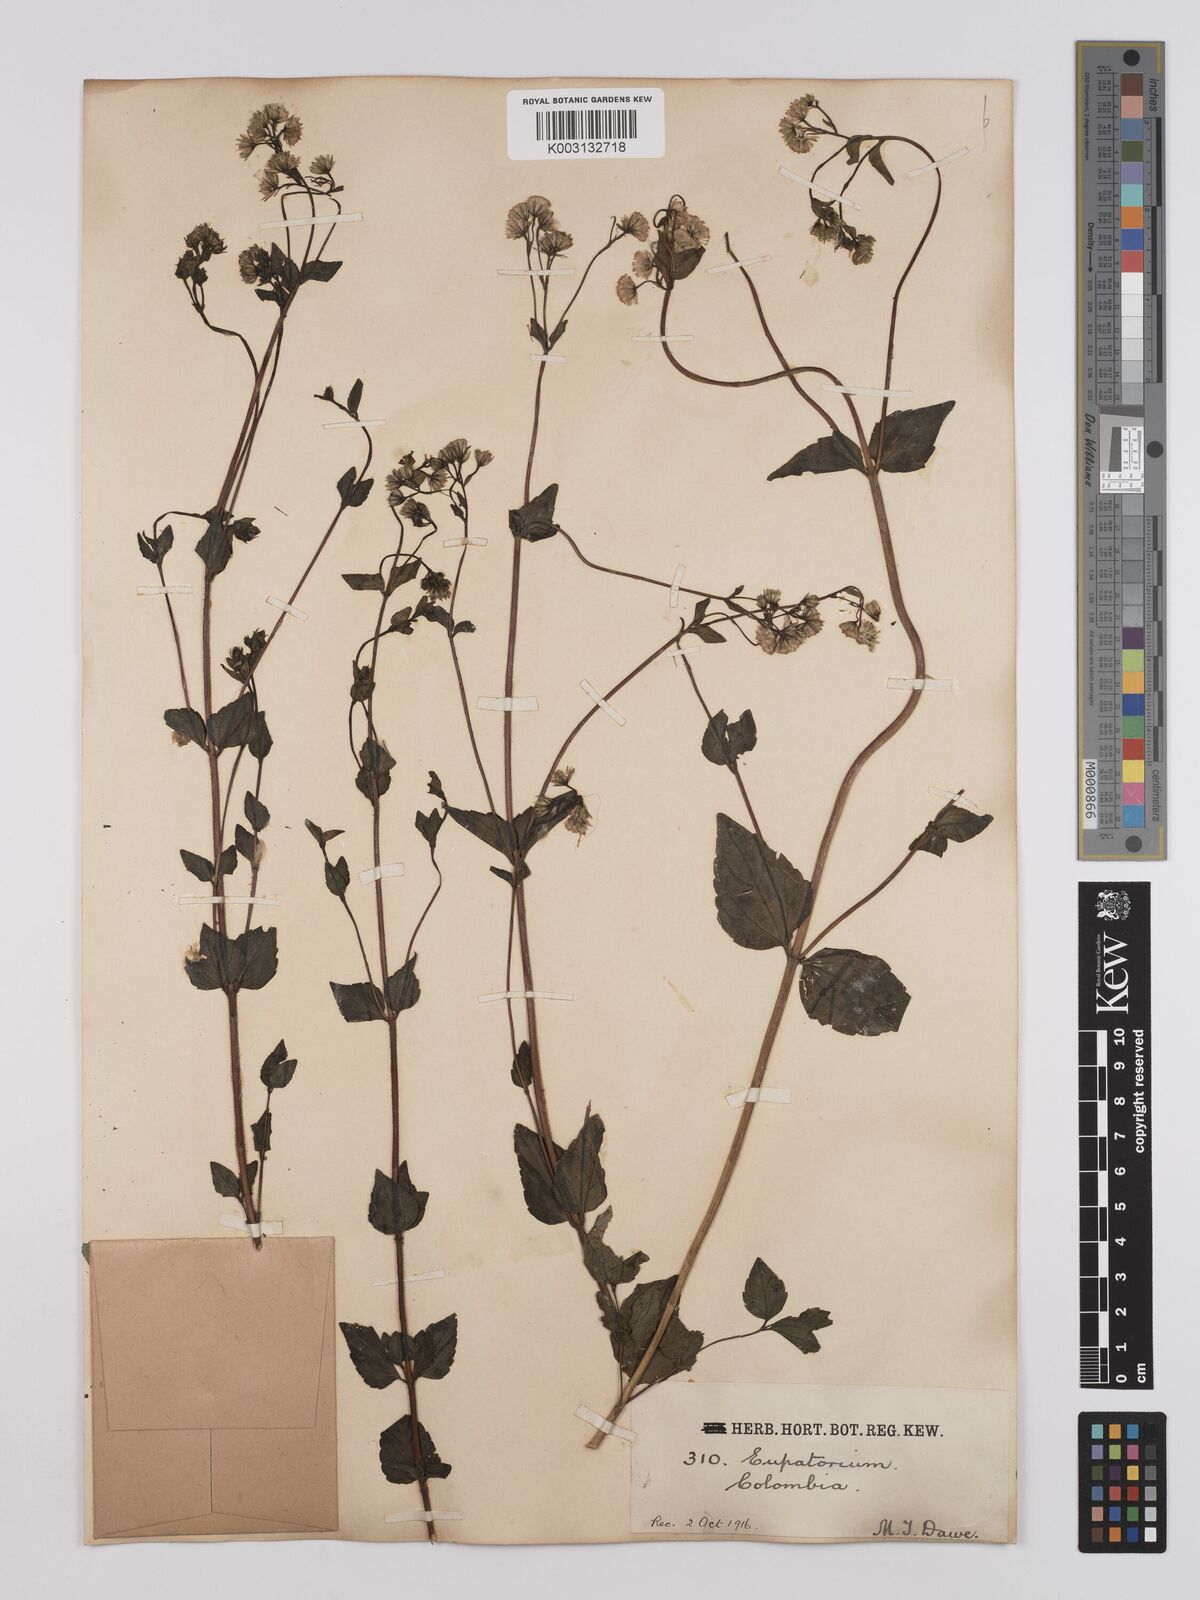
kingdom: Plantae
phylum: Tracheophyta
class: Magnoliopsida
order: Asterales
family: Asteraceae
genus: Ageratina
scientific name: Ageratina gracilis
